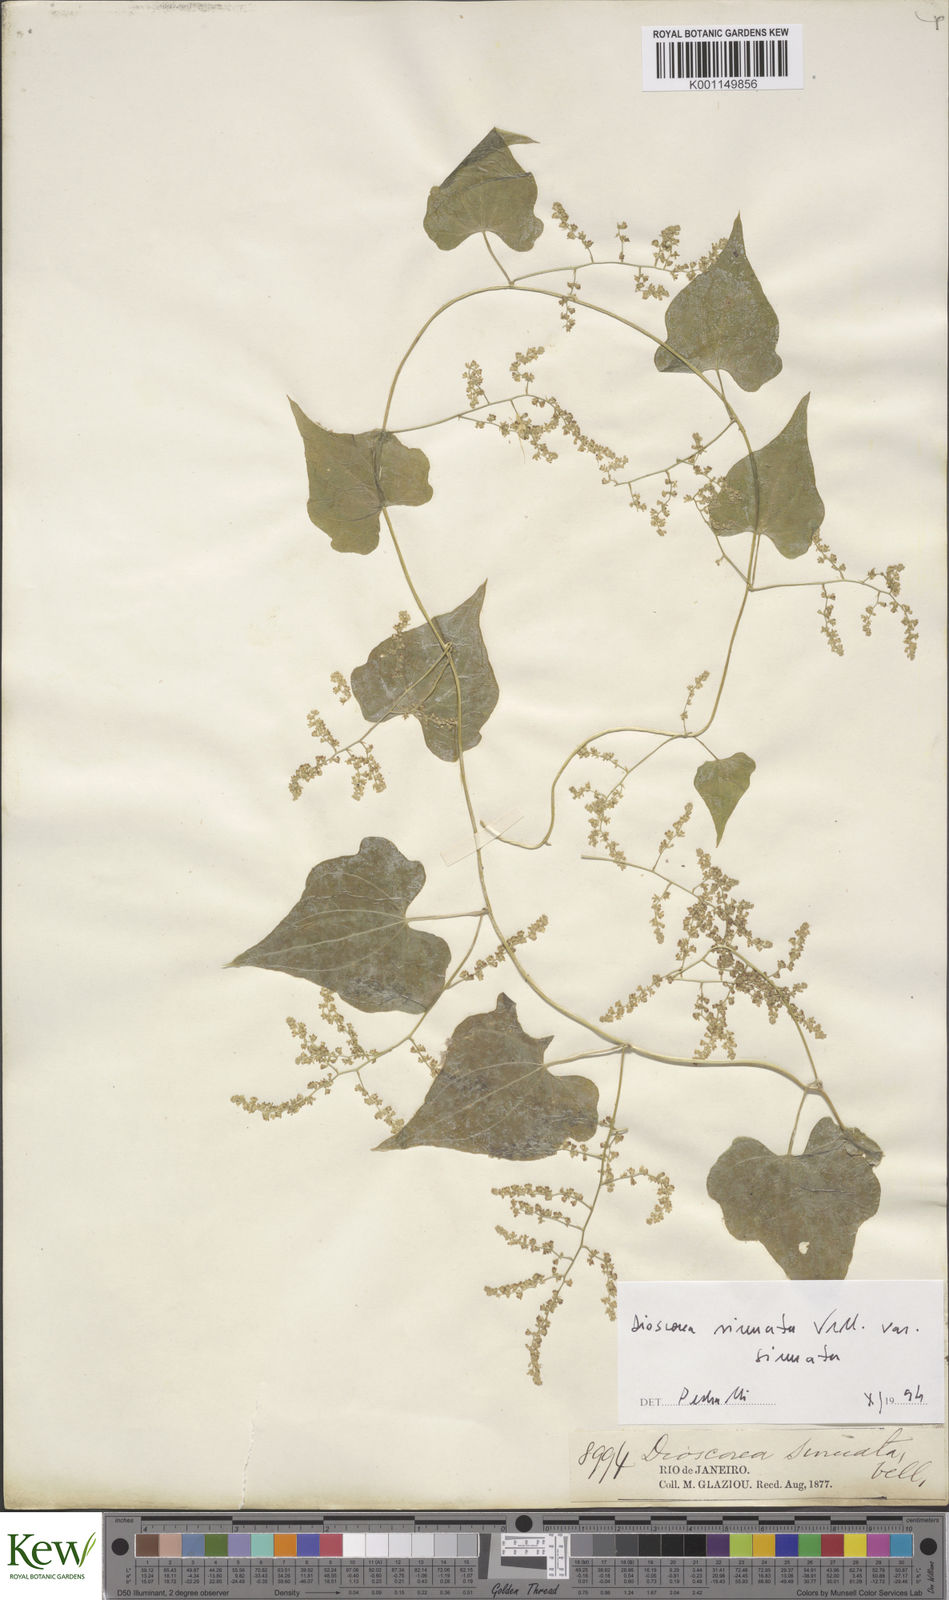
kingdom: Plantae
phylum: Tracheophyta
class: Liliopsida
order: Dioscoreales
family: Dioscoreaceae
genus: Dioscorea
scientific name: Dioscorea sinuata
